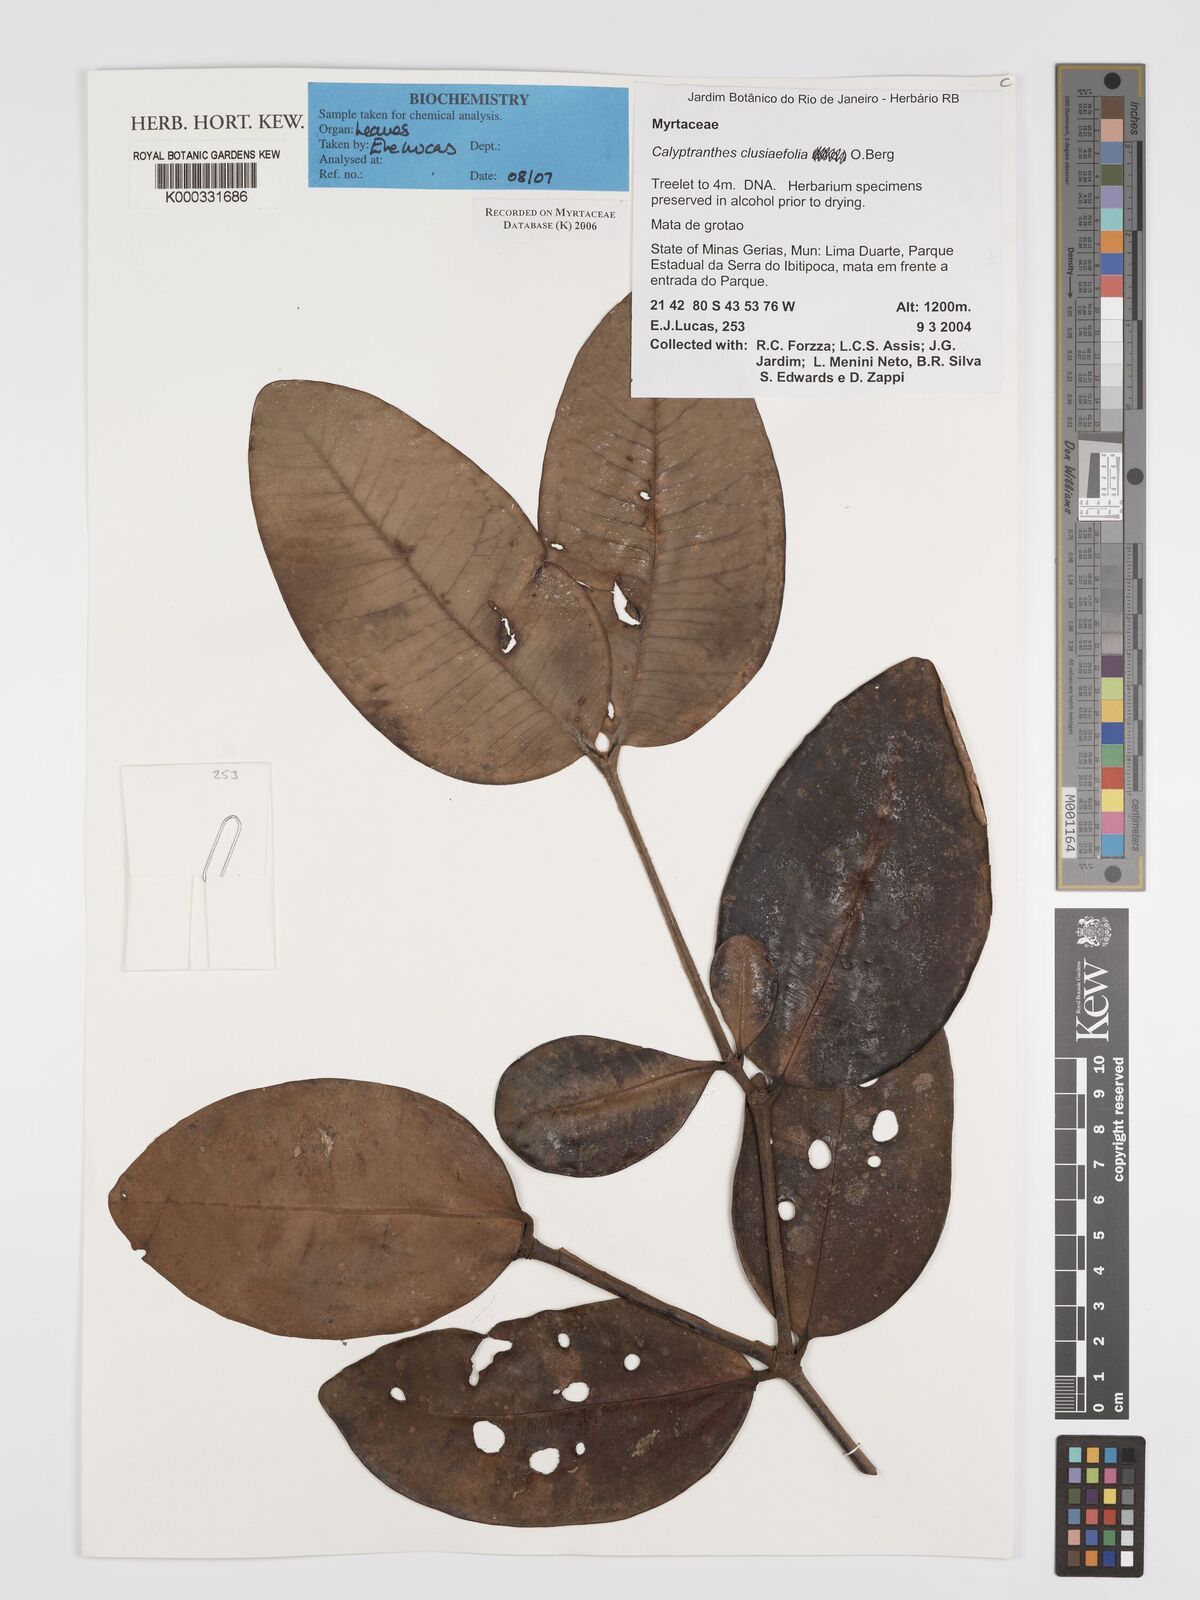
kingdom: Plantae
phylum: Tracheophyta
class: Magnoliopsida
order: Myrtales
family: Myrtaceae
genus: Calyptranthes
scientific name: Calyptranthes
